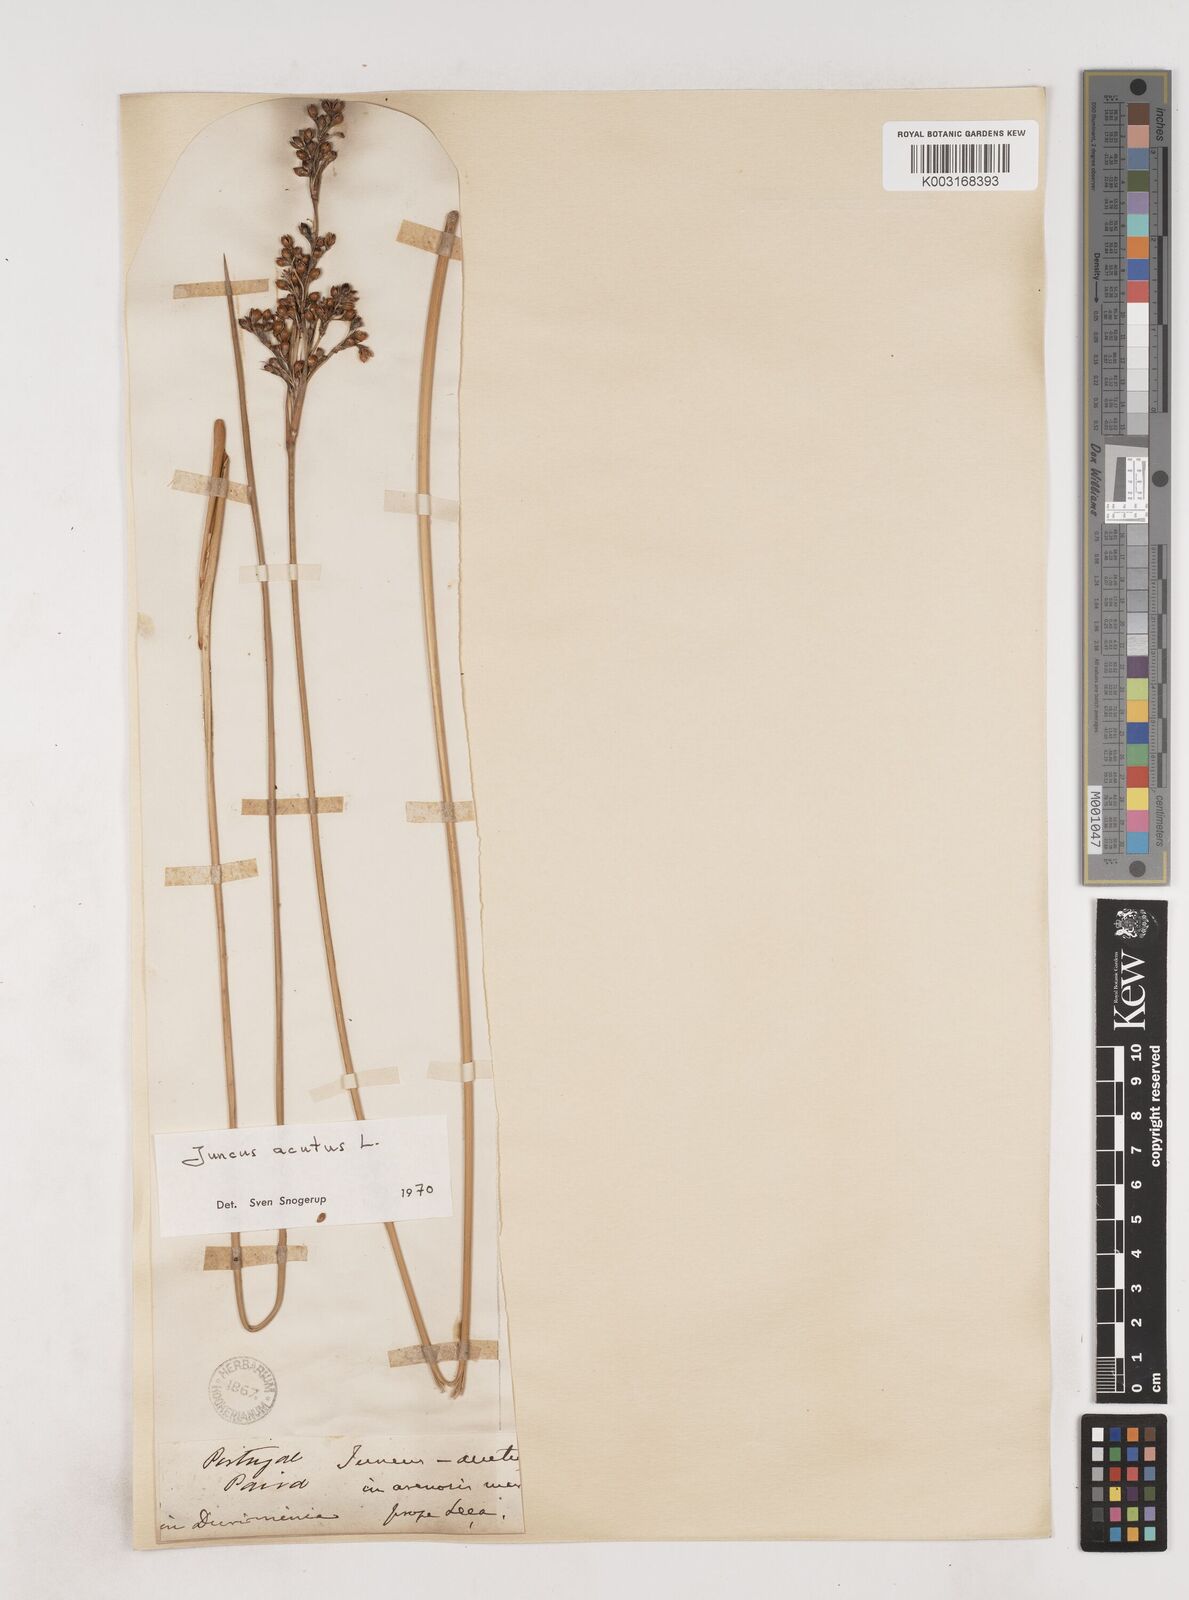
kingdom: Plantae
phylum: Tracheophyta
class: Liliopsida
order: Poales
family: Juncaceae
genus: Juncus
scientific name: Juncus acutus
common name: Sharp rush
